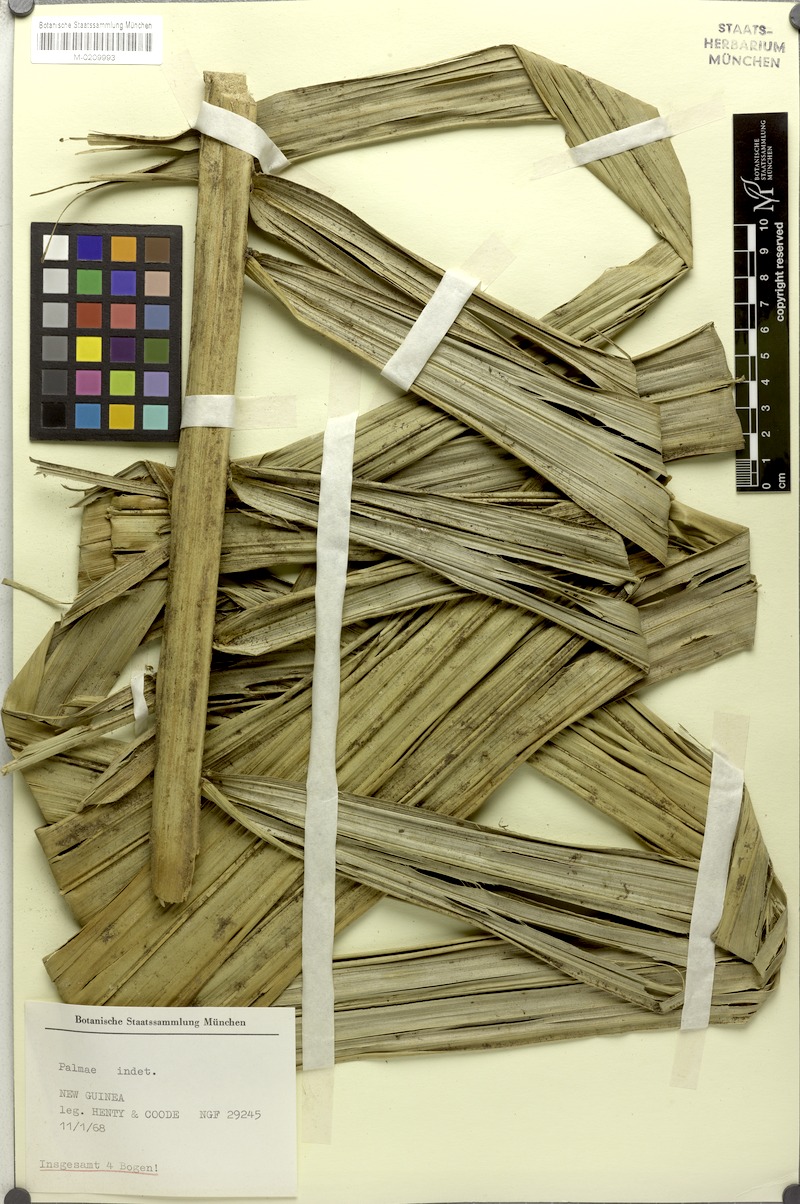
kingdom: Plantae
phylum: Tracheophyta
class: Liliopsida
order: Arecales
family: Arecaceae
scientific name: Arecaceae
